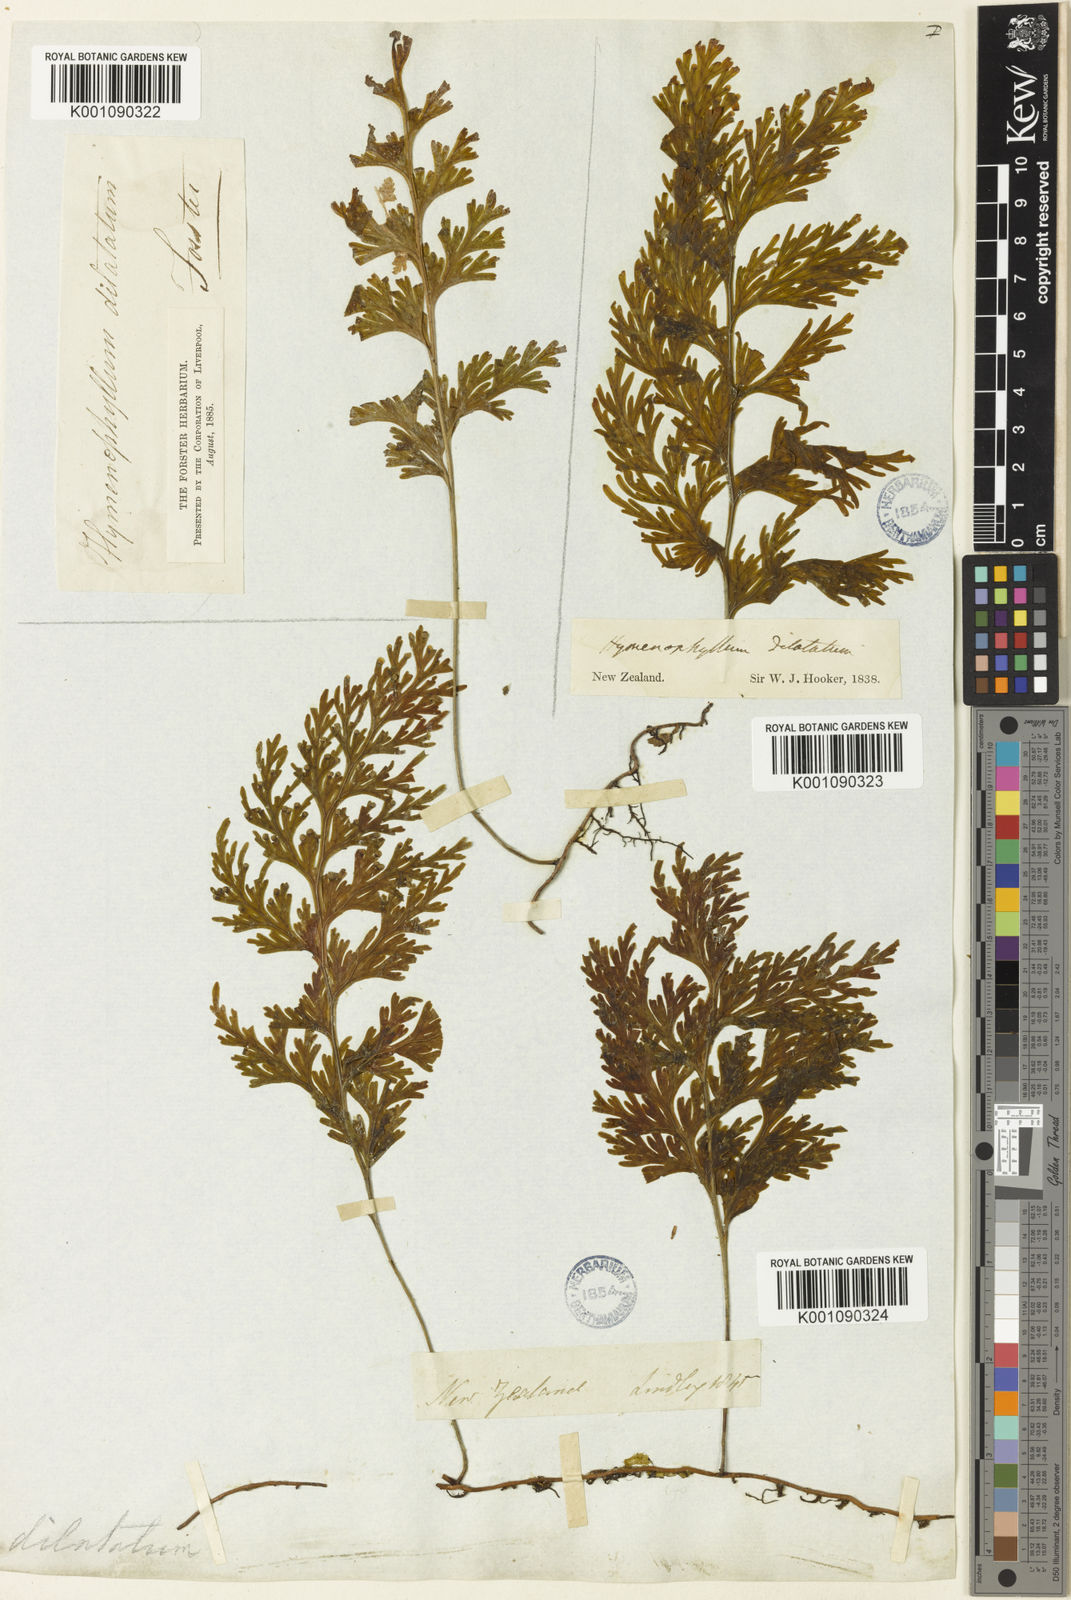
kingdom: Plantae
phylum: Tracheophyta
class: Polypodiopsida
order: Hymenophyllales
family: Hymenophyllaceae
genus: Hymenophyllum
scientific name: Hymenophyllum dilatatum
